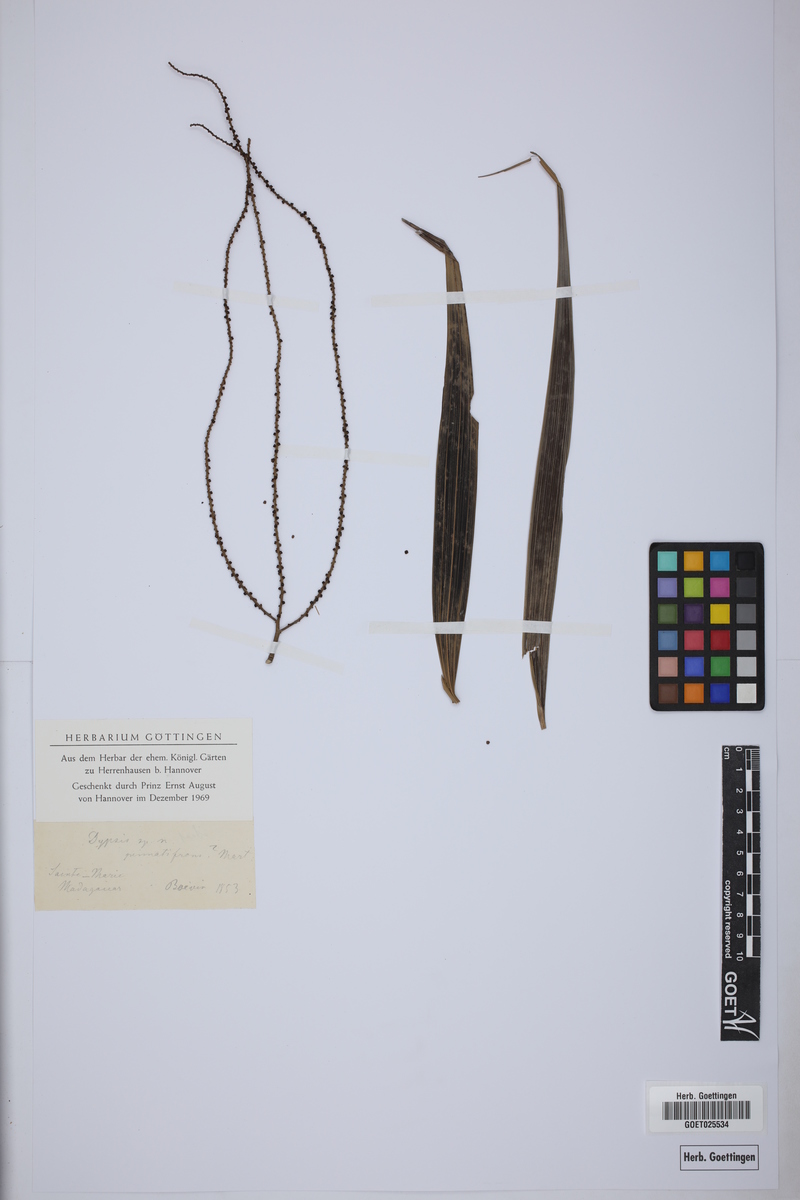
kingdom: Plantae
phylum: Tracheophyta
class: Liliopsida
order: Arecales
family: Arecaceae
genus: Dypsis
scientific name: Dypsis
